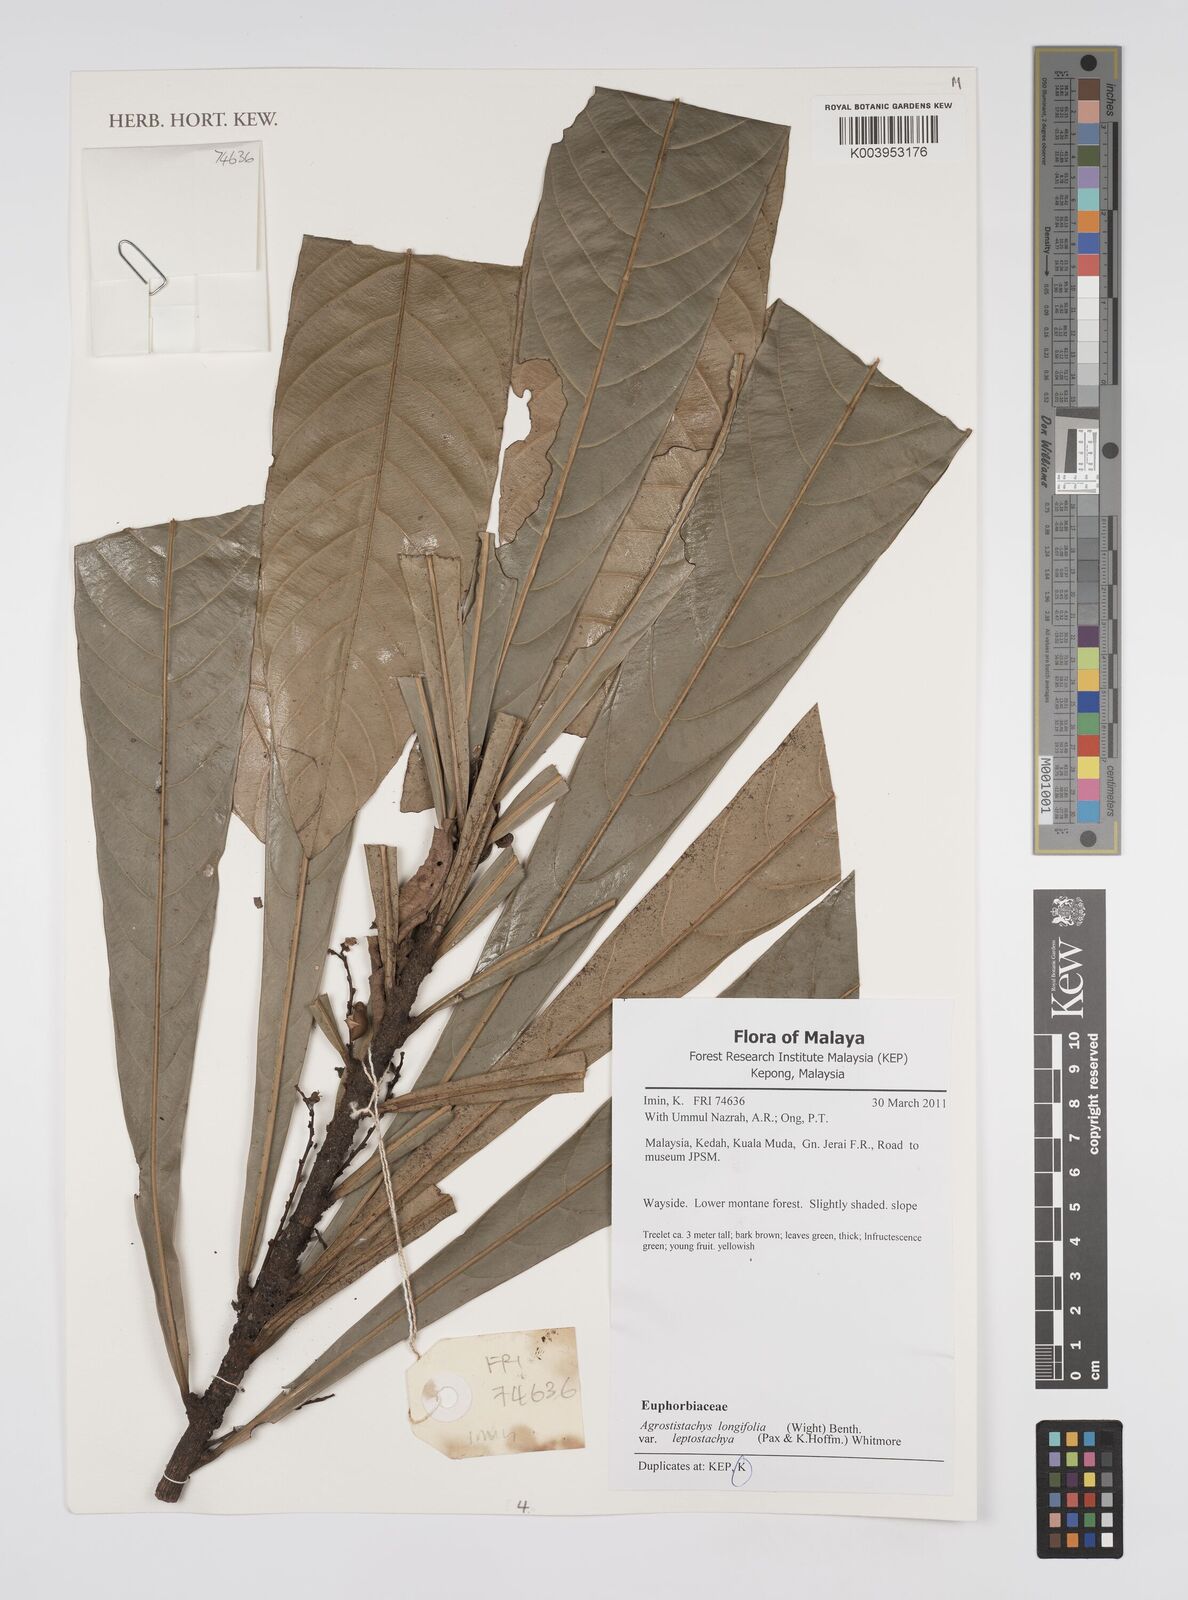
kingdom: Plantae
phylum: Tracheophyta
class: Magnoliopsida
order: Malpighiales
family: Euphorbiaceae
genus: Agrostistachys
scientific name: Agrostistachys borneensis
